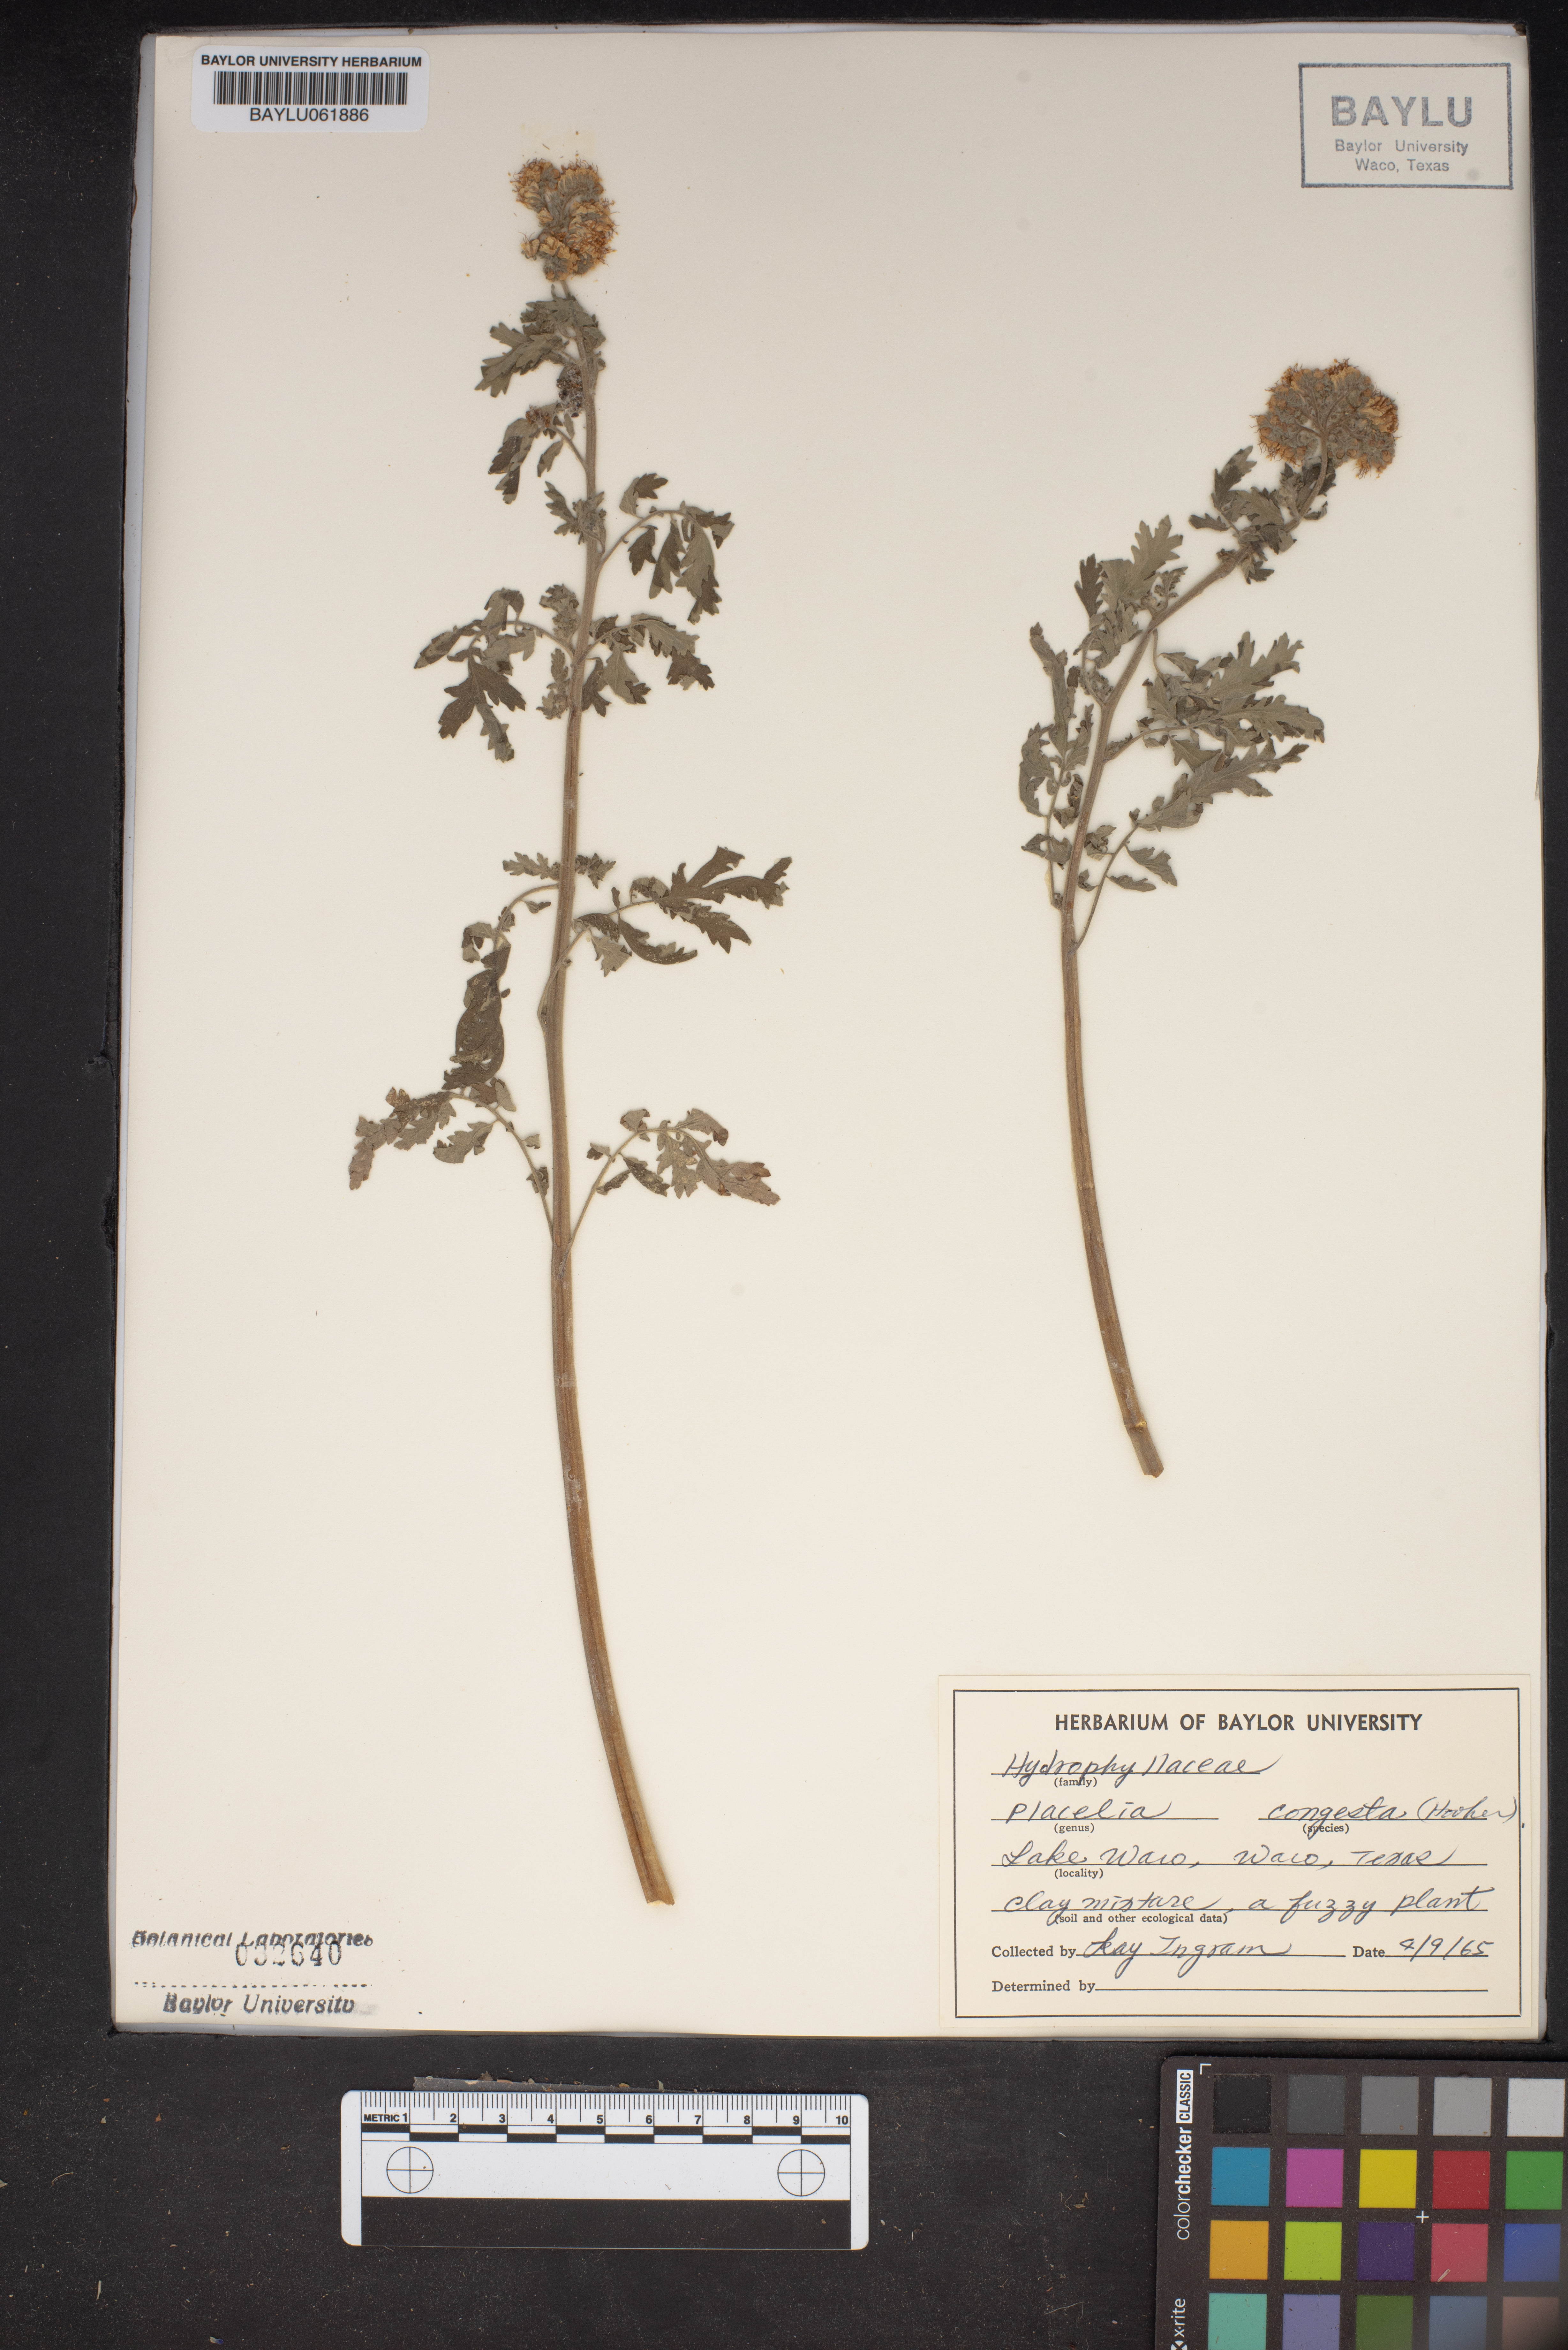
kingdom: Plantae
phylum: Tracheophyta
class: Magnoliopsida
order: Boraginales
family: Hydrophyllaceae
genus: Phacelia
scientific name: Phacelia congesta
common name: Blue curls
